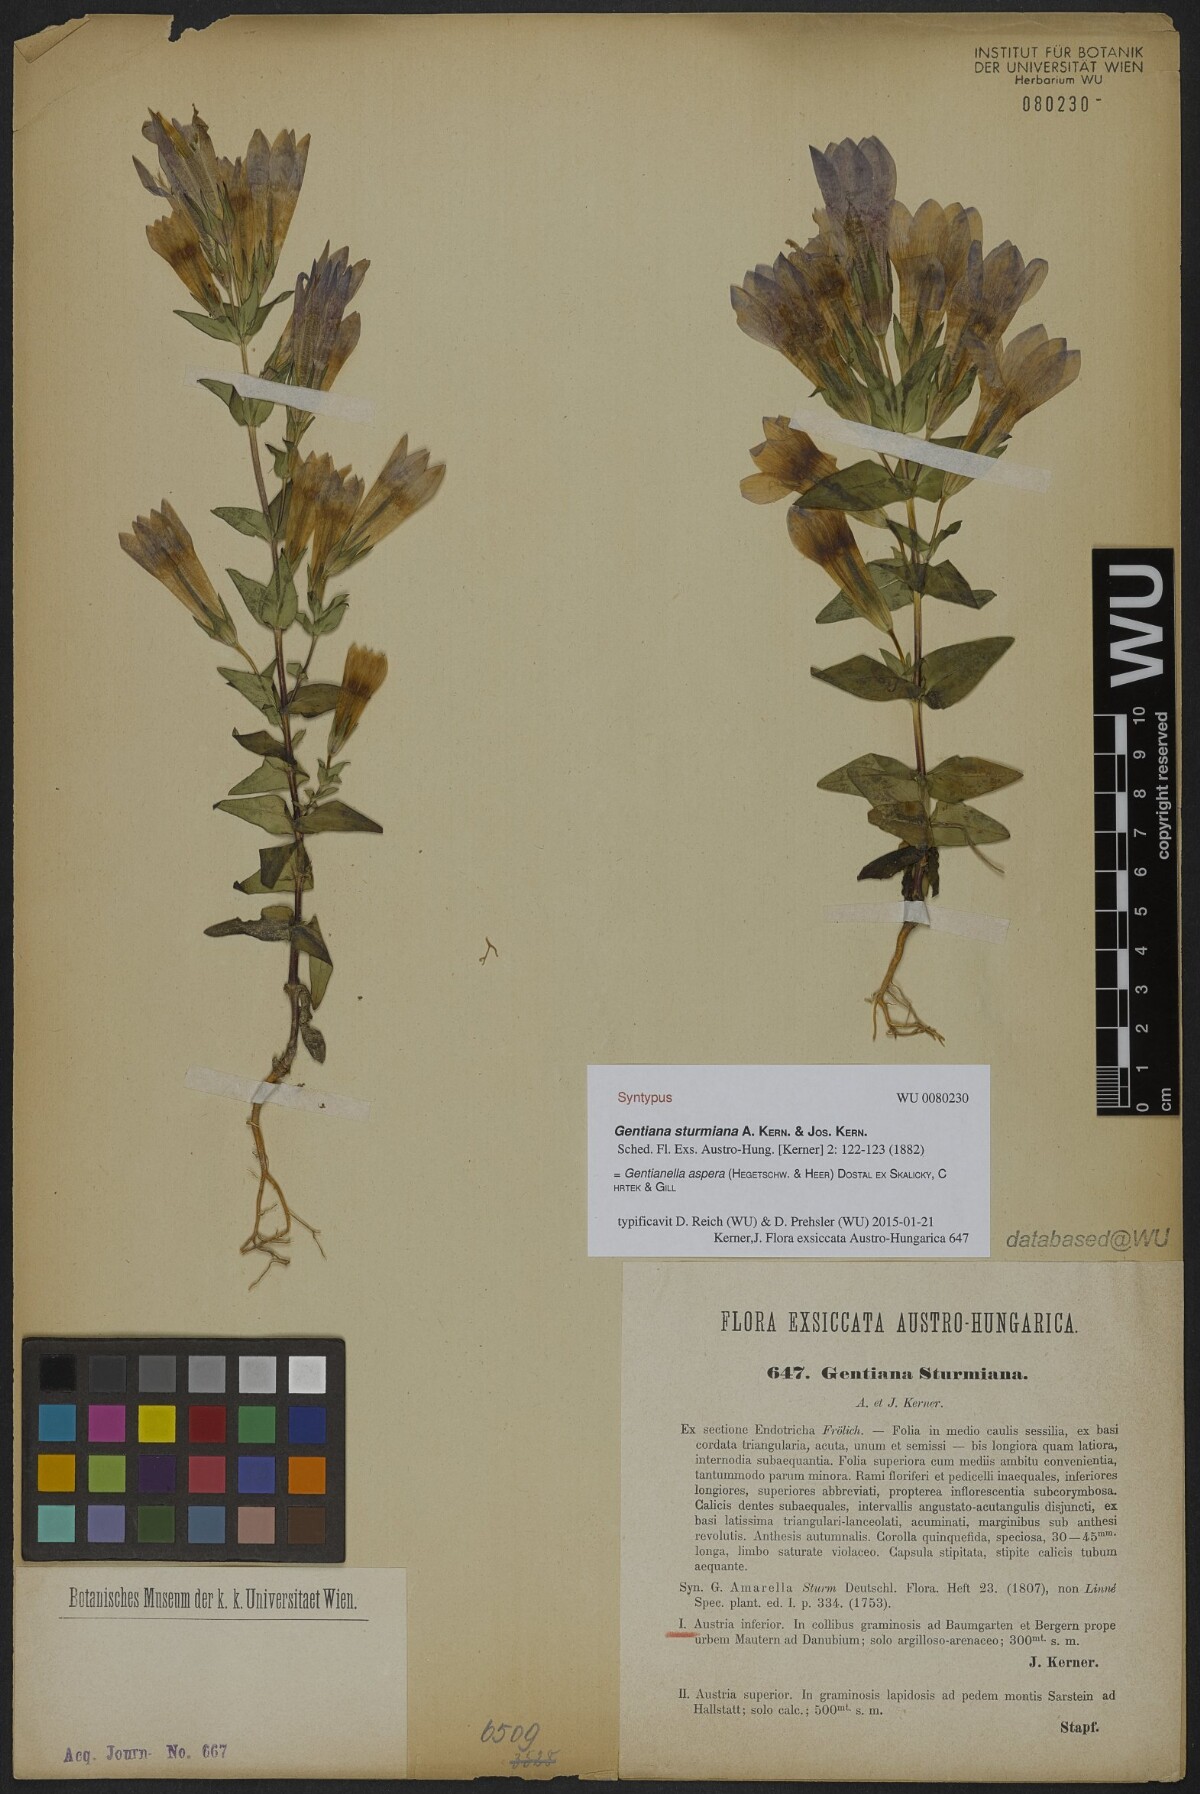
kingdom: Plantae
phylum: Tracheophyta
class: Magnoliopsida
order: Gentianales
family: Gentianaceae
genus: Gentianella
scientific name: Gentianella obtusifolia
